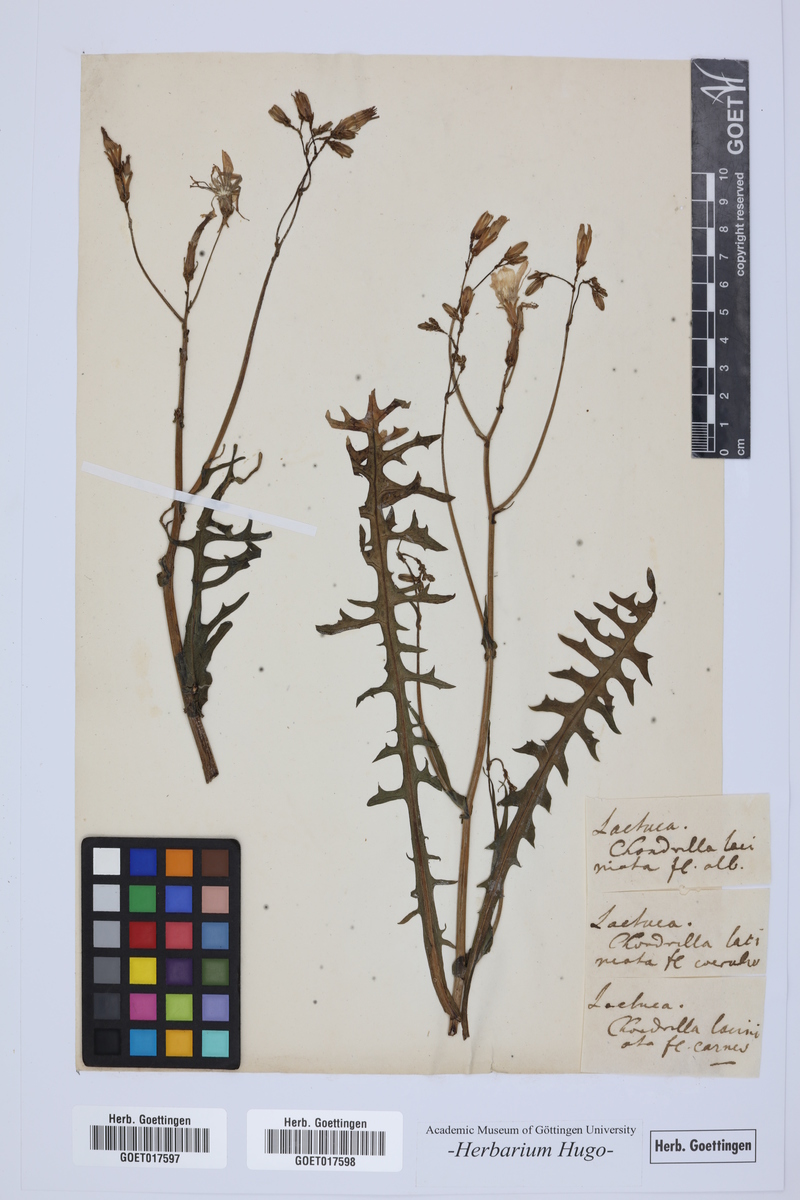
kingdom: Plantae
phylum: Tracheophyta
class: Magnoliopsida
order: Asterales
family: Asteraceae
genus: Lactuca
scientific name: Lactuca
